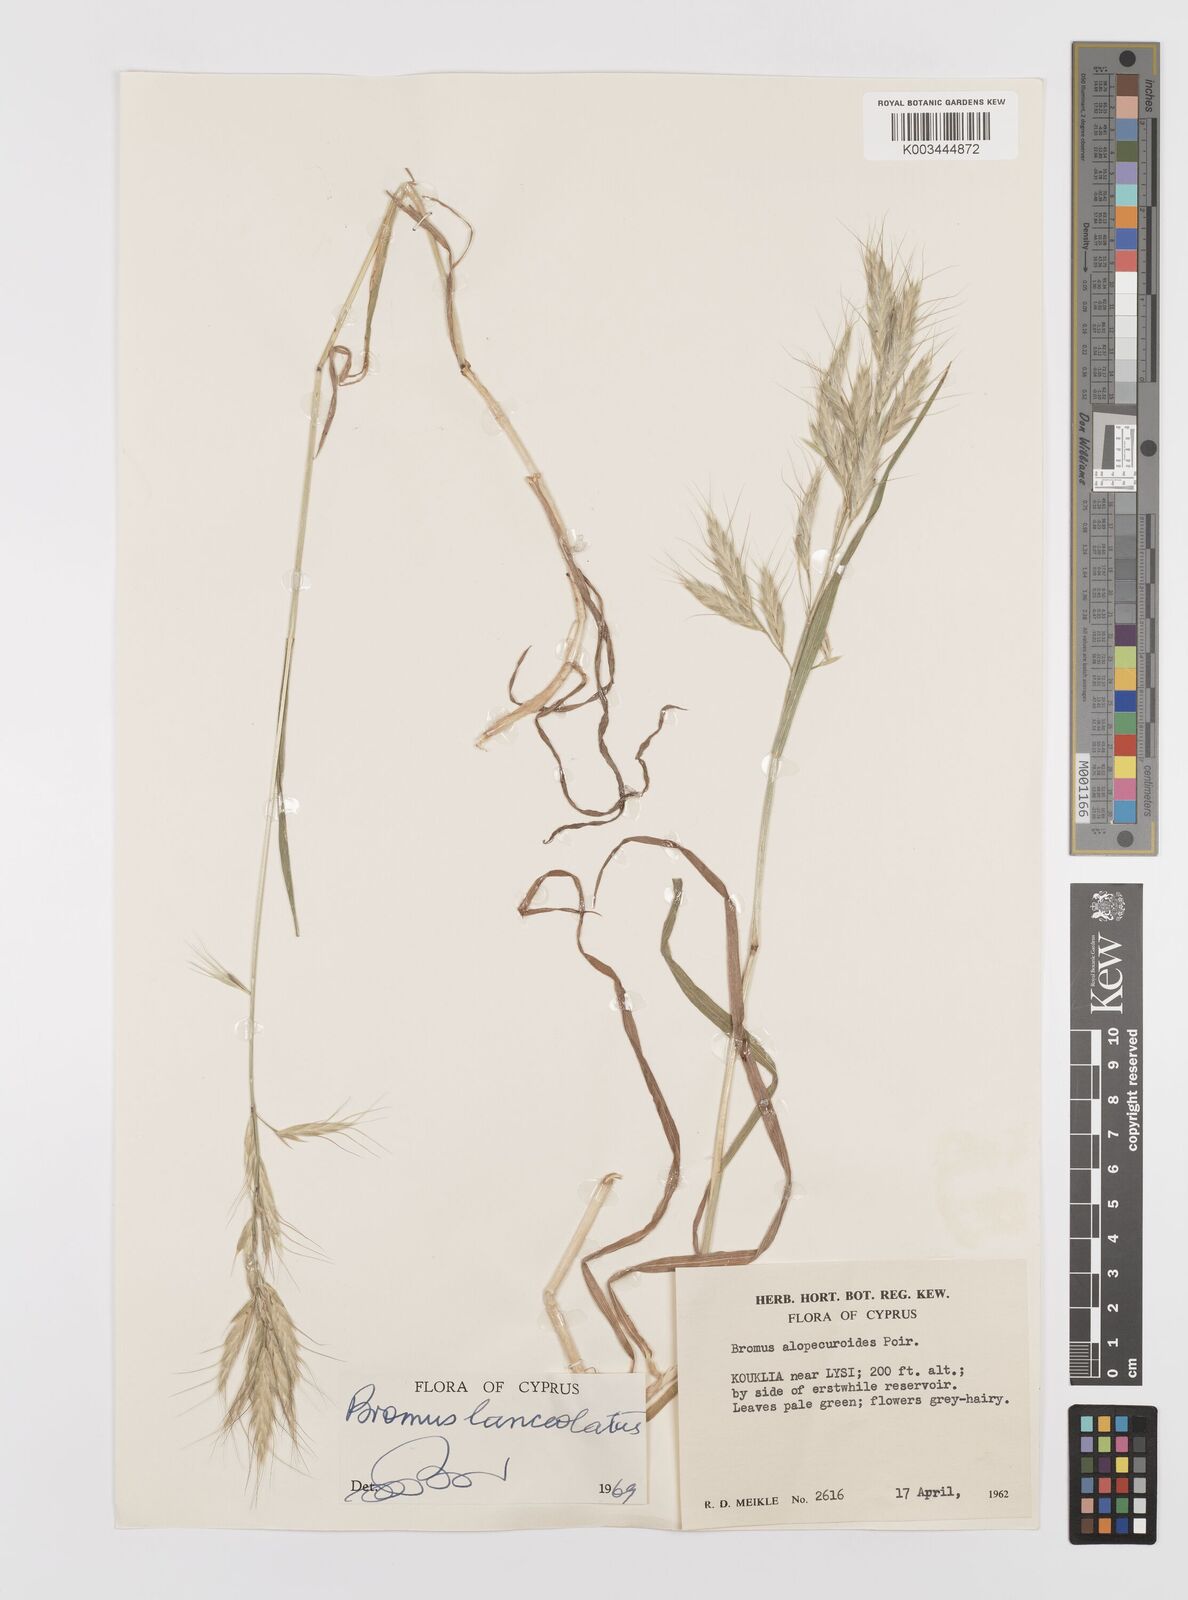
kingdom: Plantae
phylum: Tracheophyta
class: Liliopsida
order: Poales
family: Poaceae
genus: Bromus
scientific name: Bromus lanceolatus
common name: Mediterranean brome
